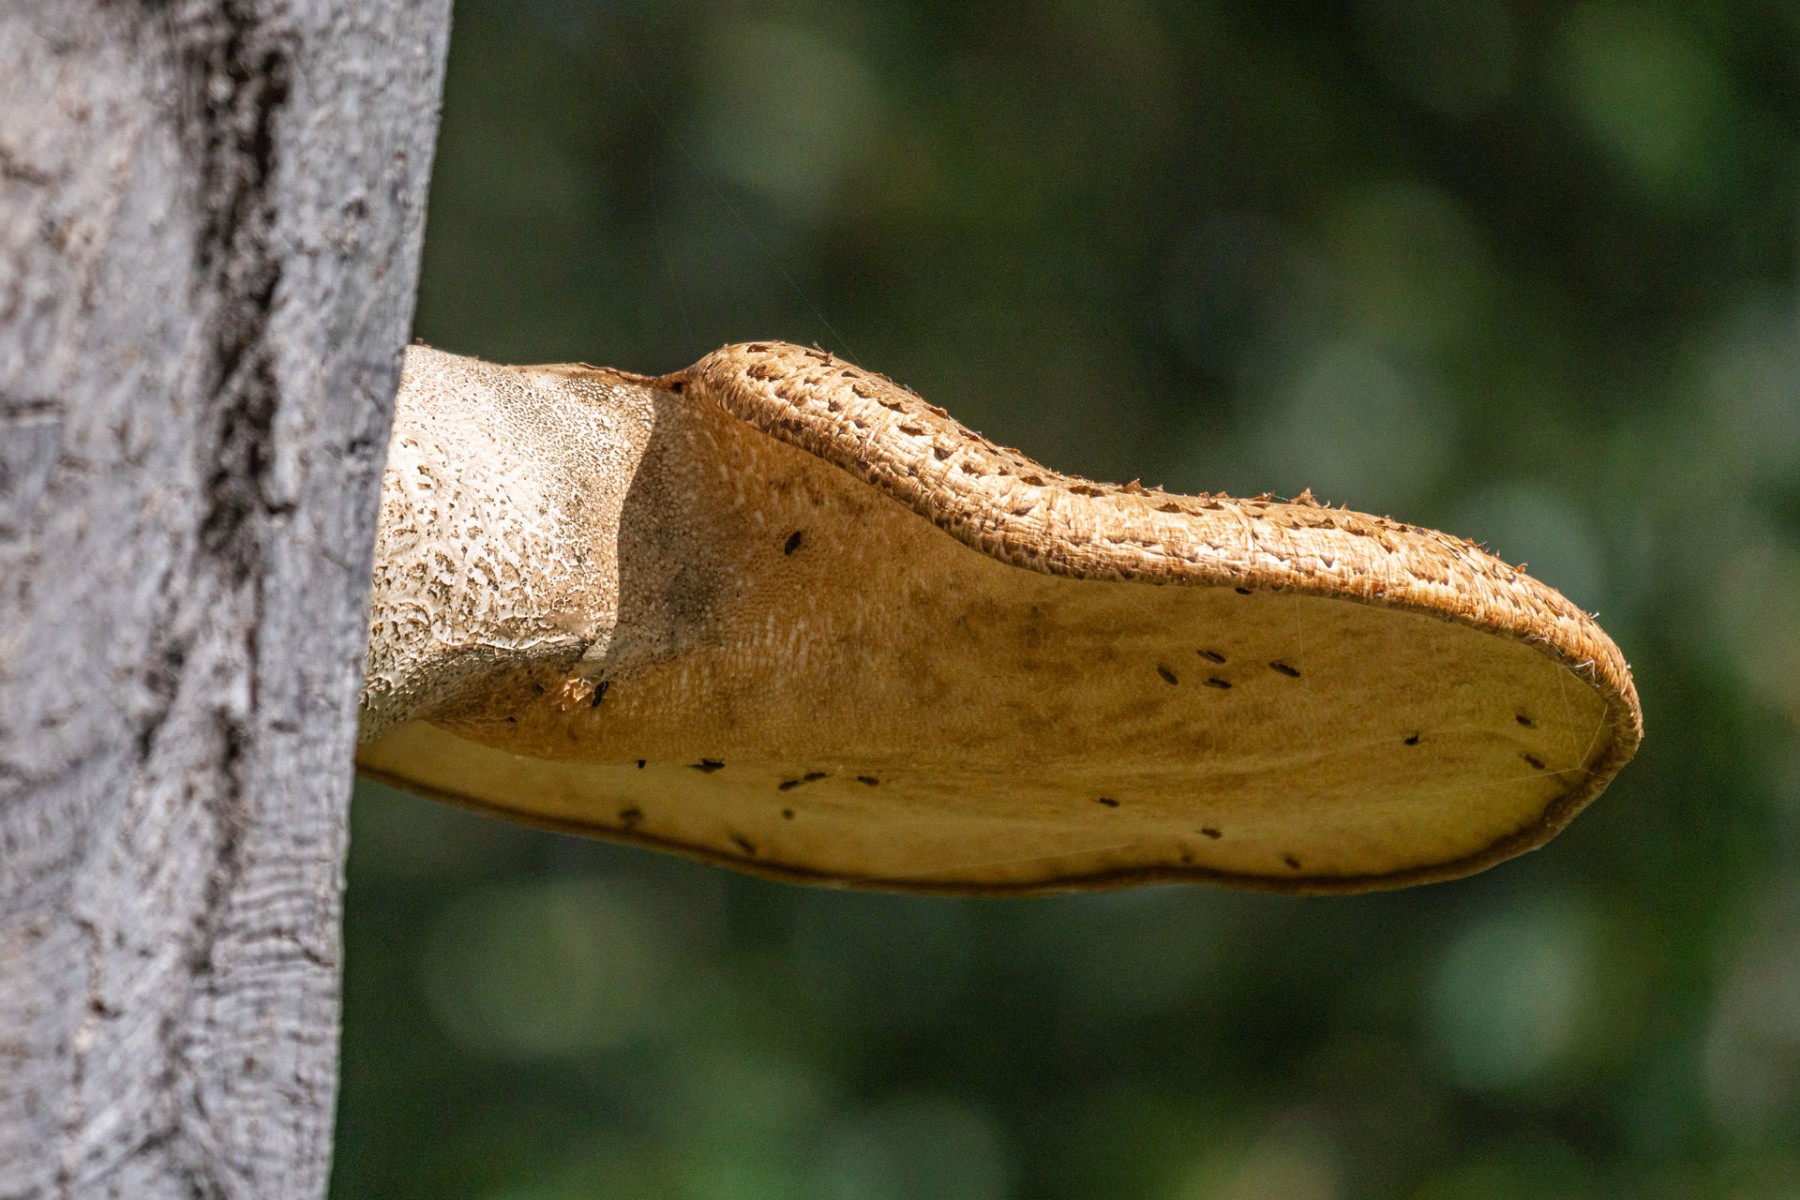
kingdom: Fungi
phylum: Basidiomycota
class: Agaricomycetes
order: Polyporales
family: Polyporaceae
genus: Cerioporus
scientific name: Cerioporus squamosus
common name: skællet stilkporesvamp
